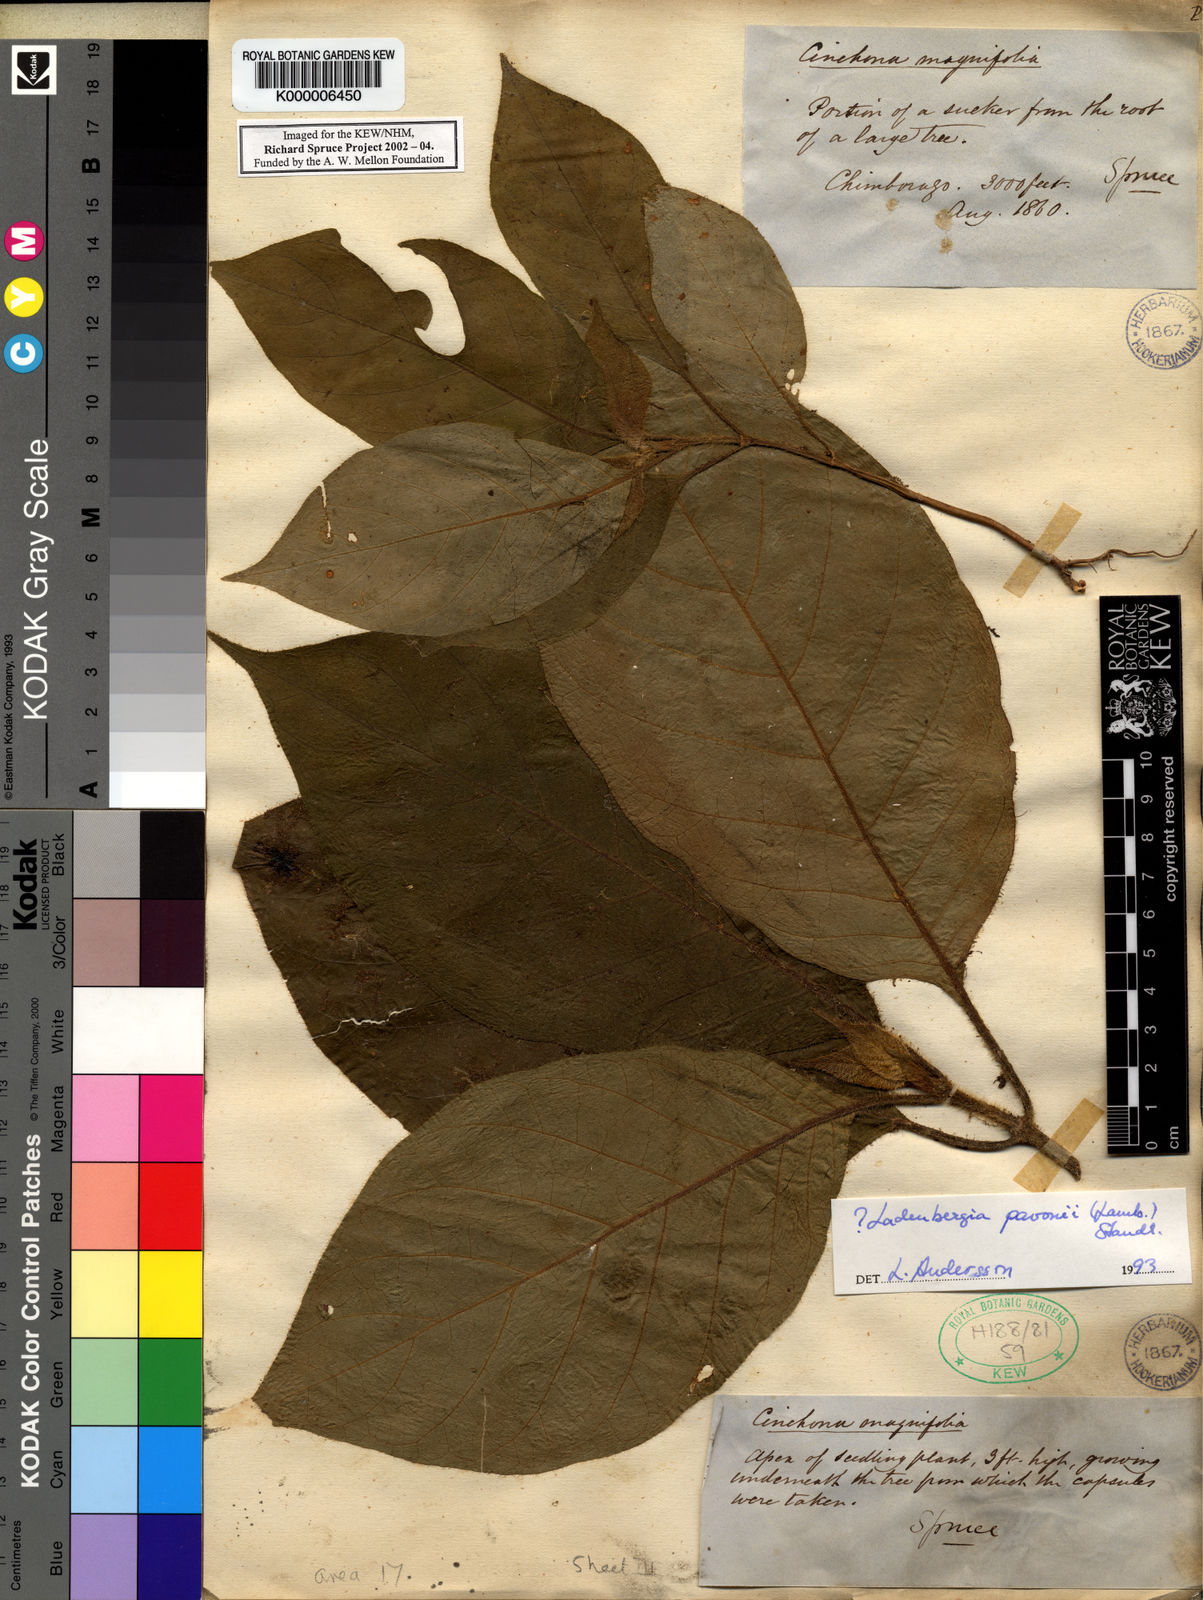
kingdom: Plantae
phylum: Tracheophyta
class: Magnoliopsida
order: Gentianales
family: Rubiaceae
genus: Ladenbergia
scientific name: Ladenbergia pavonii
